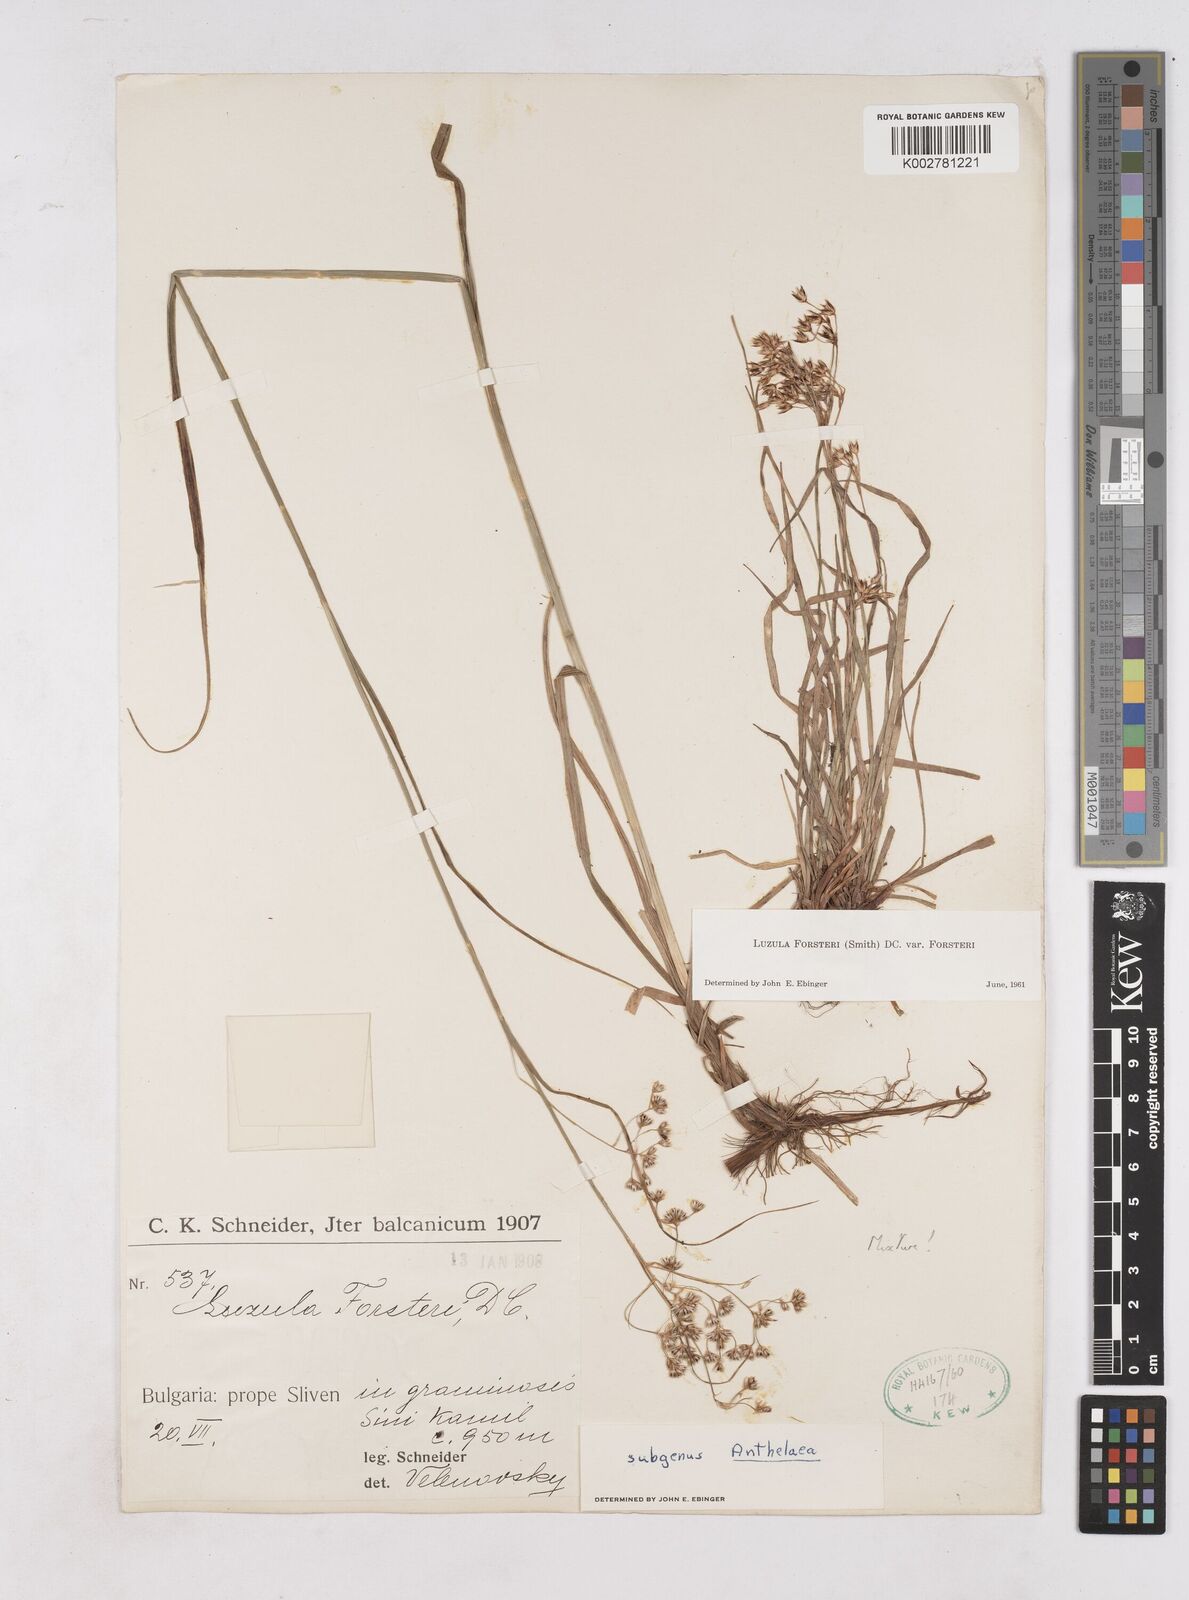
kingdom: Plantae
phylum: Tracheophyta
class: Liliopsida
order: Poales
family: Juncaceae
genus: Luzula
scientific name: Luzula forsteri
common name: Southern wood-rush
